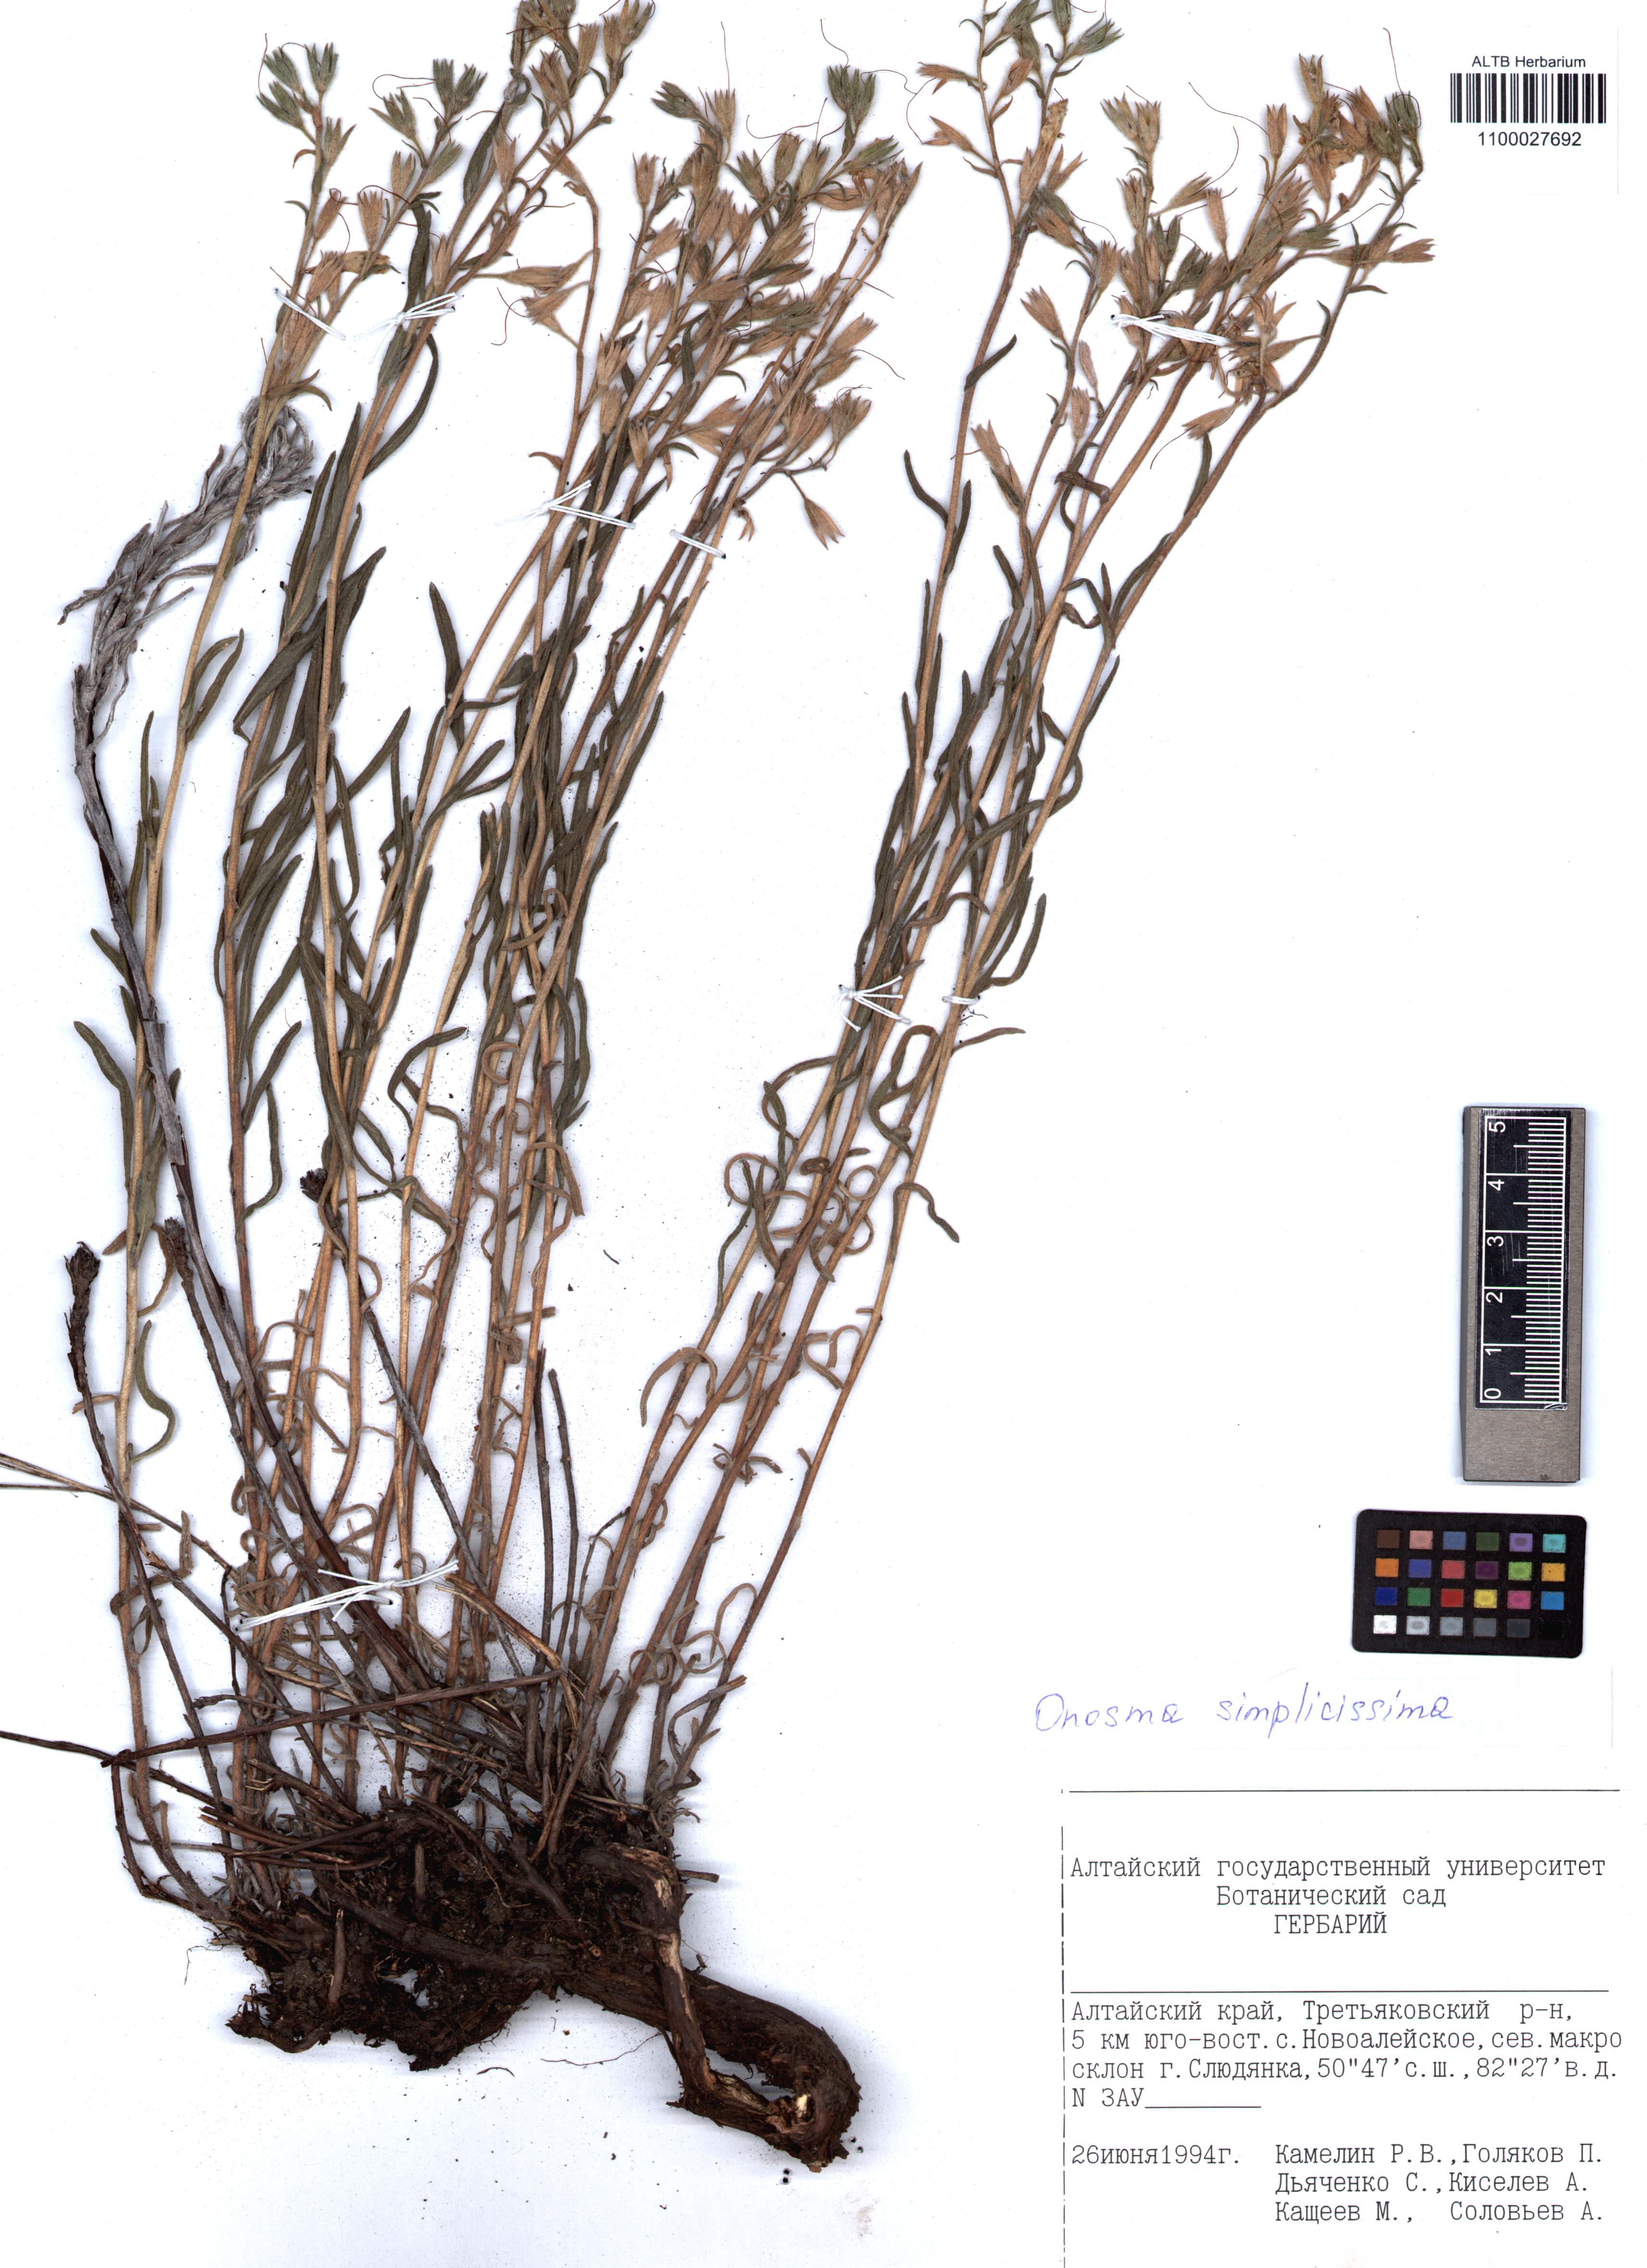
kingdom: Plantae
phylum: Tracheophyta
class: Magnoliopsida
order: Boraginales
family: Boraginaceae
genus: Onosma
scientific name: Onosma simplicissima
